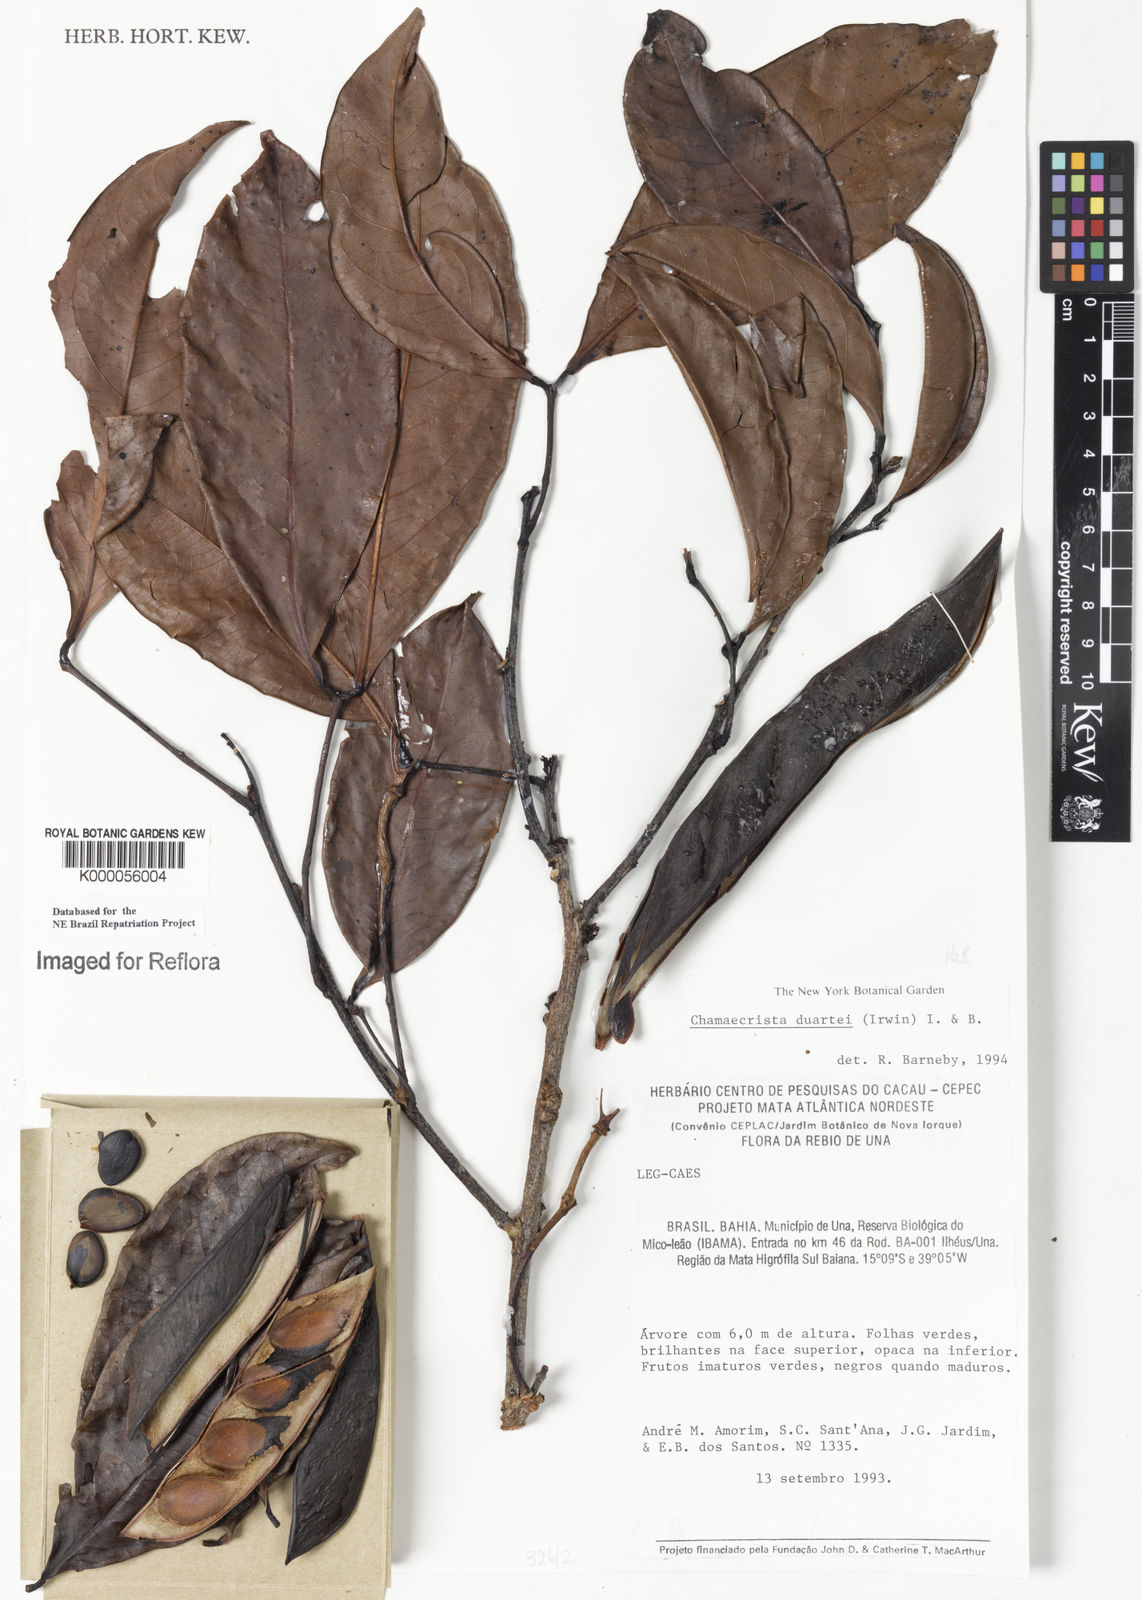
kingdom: Plantae
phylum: Tracheophyta
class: Magnoliopsida
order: Fabales
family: Fabaceae
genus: Chamaecrista
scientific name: Chamaecrista duartei
